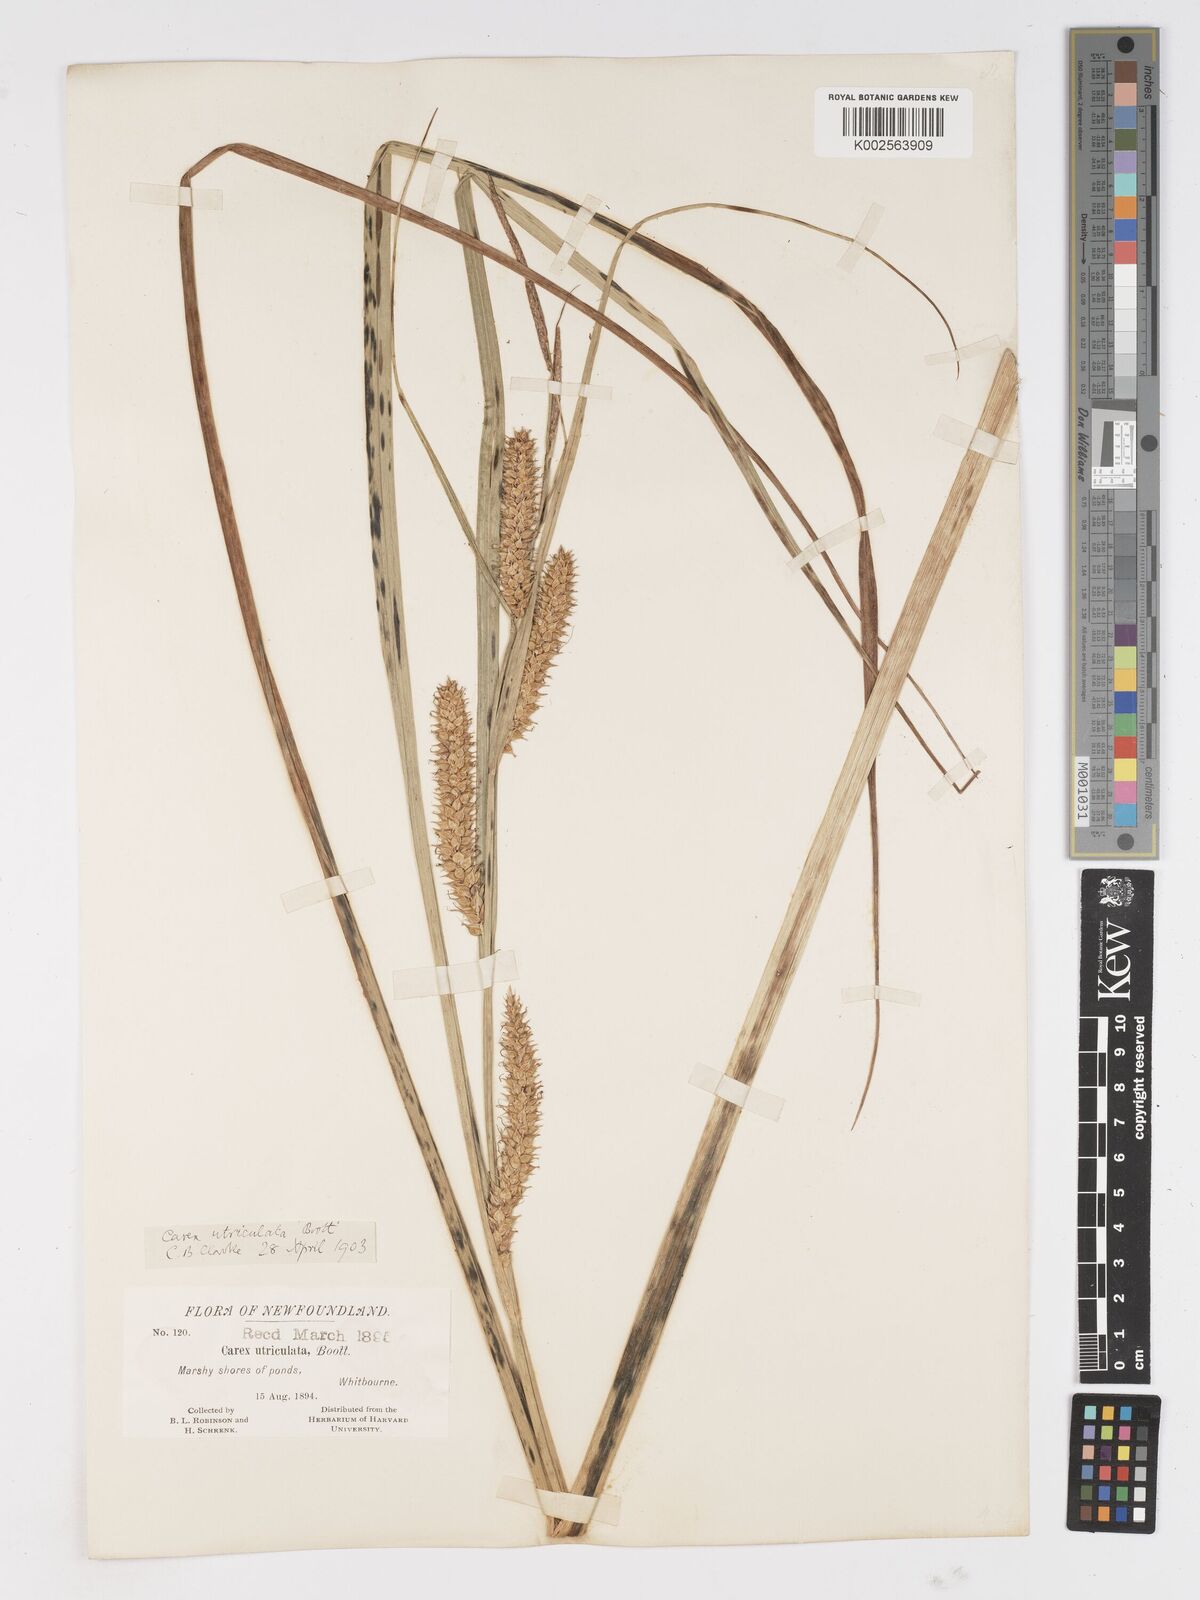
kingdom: Plantae
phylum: Tracheophyta
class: Liliopsida
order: Poales
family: Cyperaceae
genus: Carex
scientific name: Carex rostrata
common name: Bottle sedge
